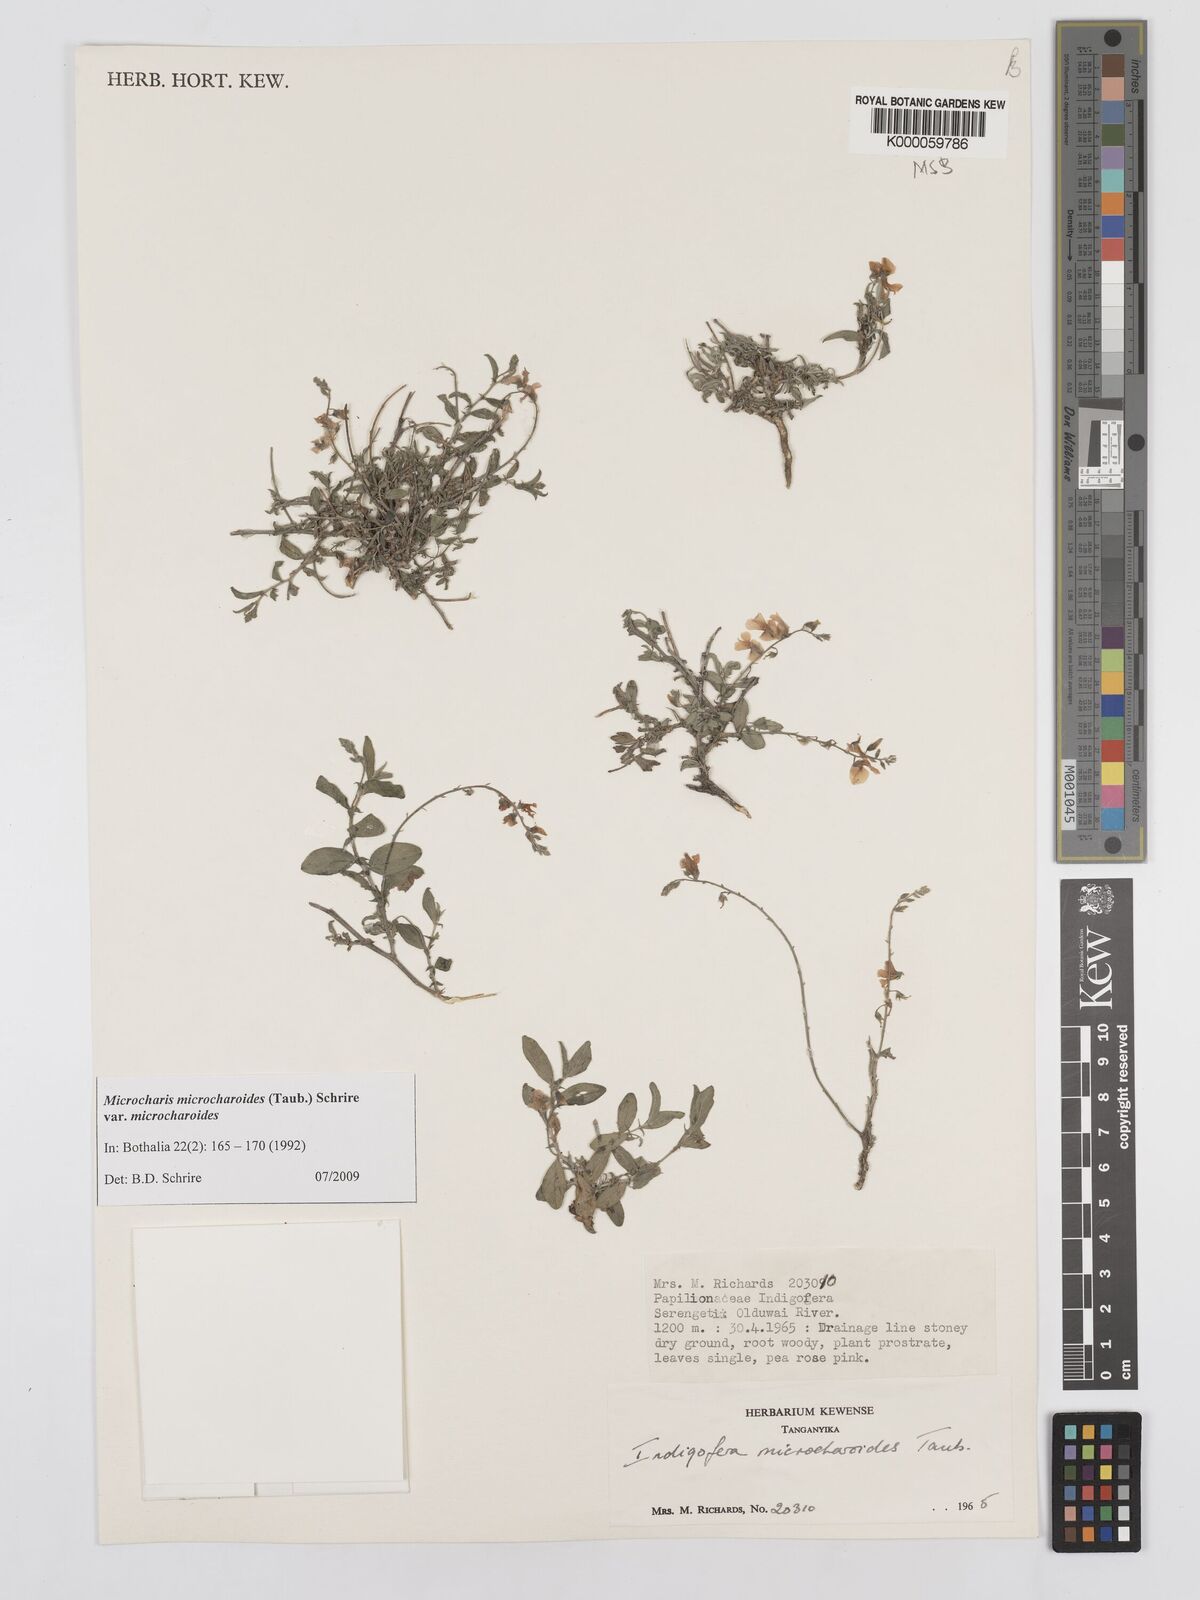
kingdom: Plantae
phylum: Tracheophyta
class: Magnoliopsida
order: Fabales
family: Fabaceae
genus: Microcharis
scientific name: Microcharis microcharoides
